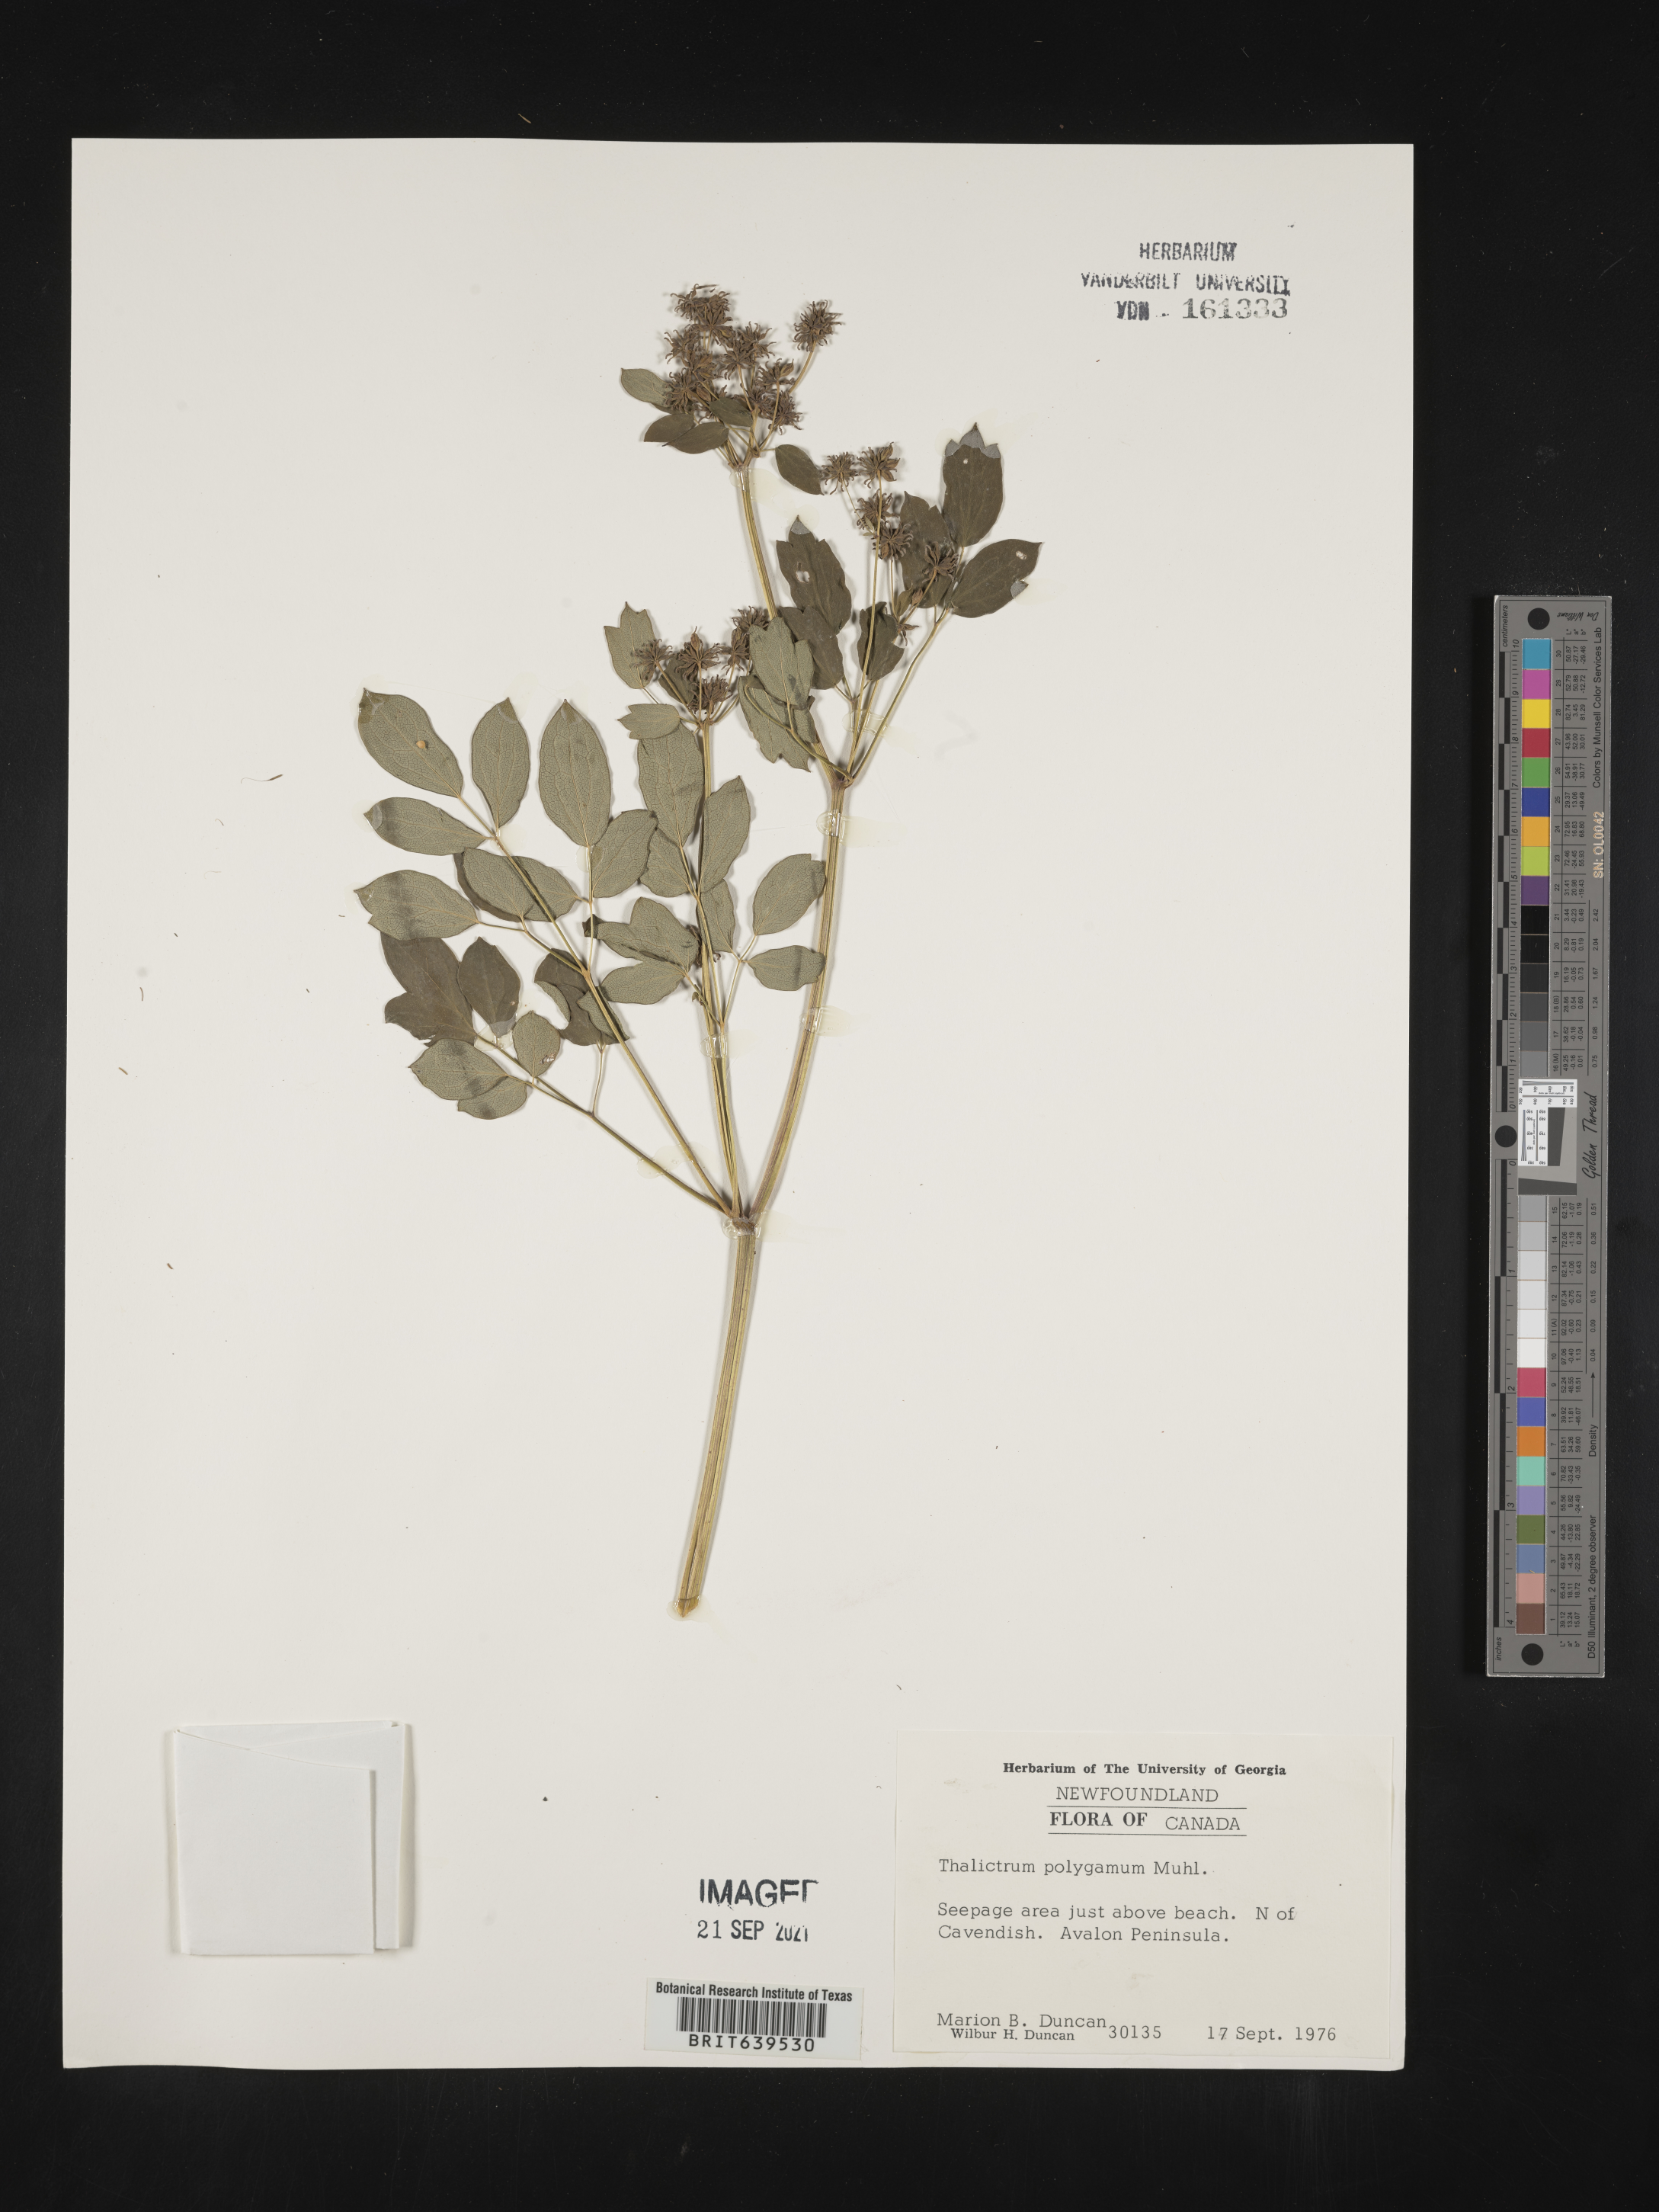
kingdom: Plantae
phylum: Tracheophyta
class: Magnoliopsida
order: Ranunculales
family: Ranunculaceae
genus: Thalictrum
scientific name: Thalictrum
